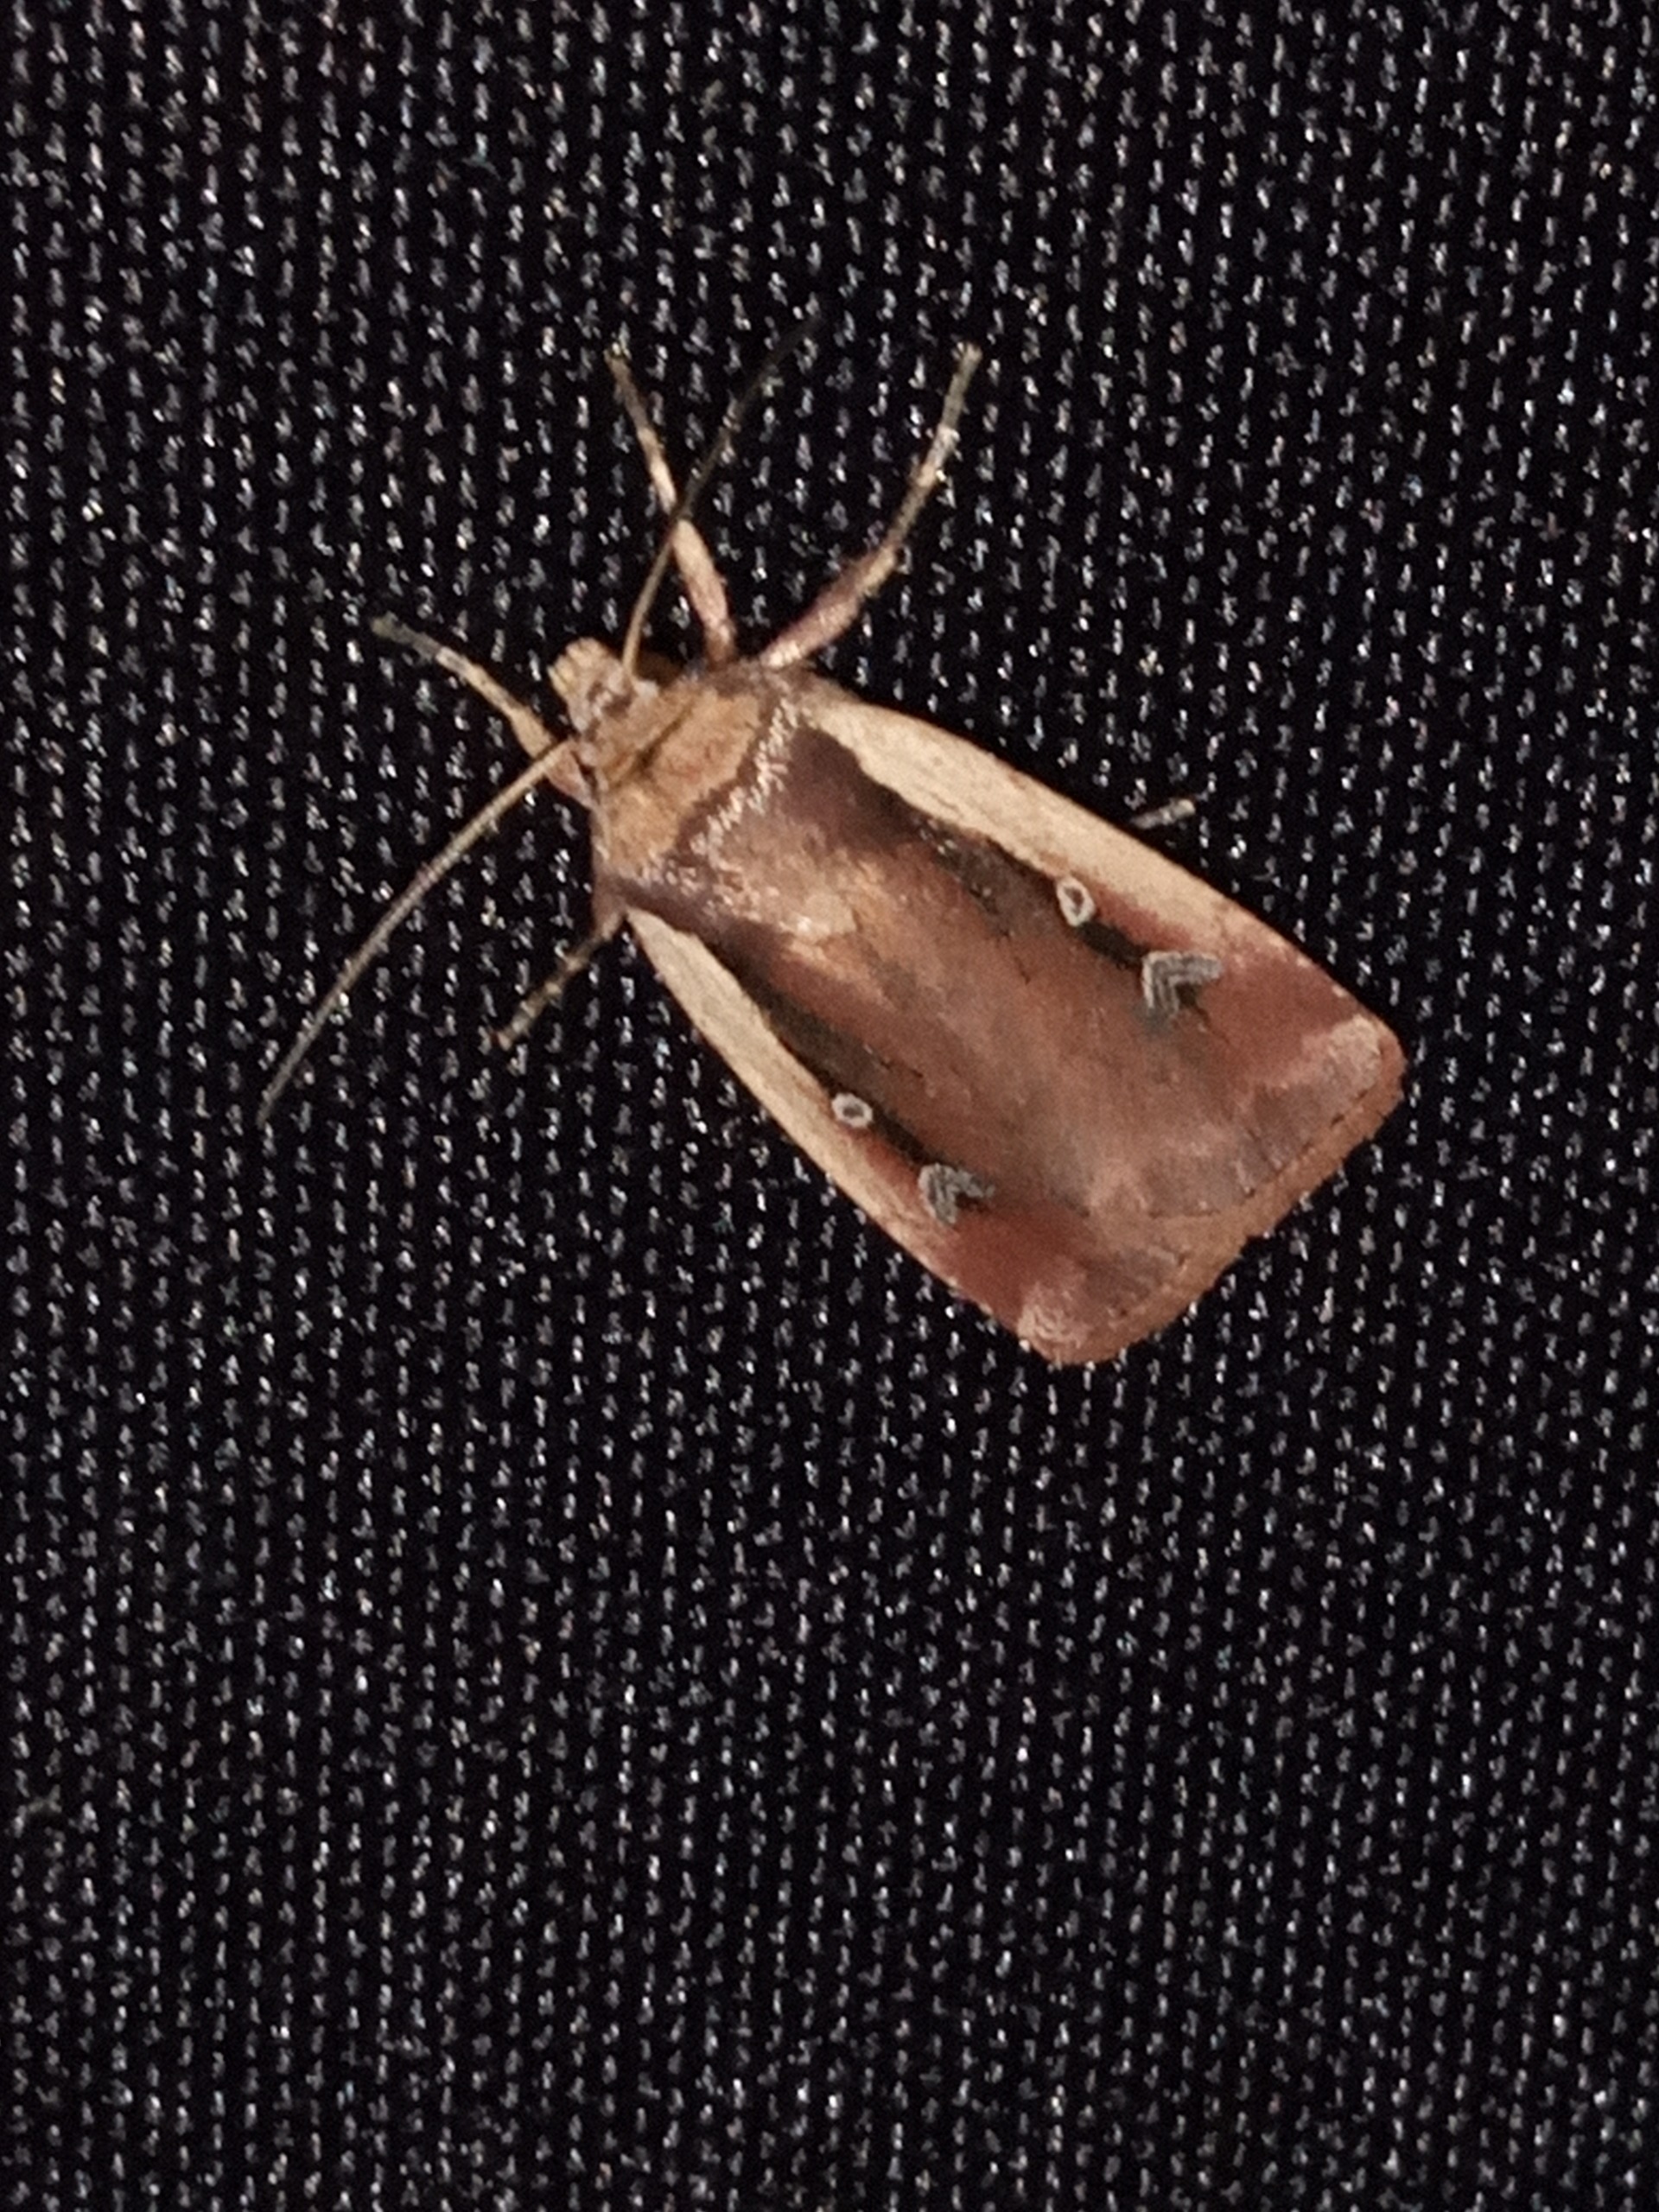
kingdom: Animalia
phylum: Arthropoda
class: Insecta
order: Lepidoptera
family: Noctuidae
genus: Ochropleura
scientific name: Ochropleura plecta
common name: Hvidrandet jordugle
